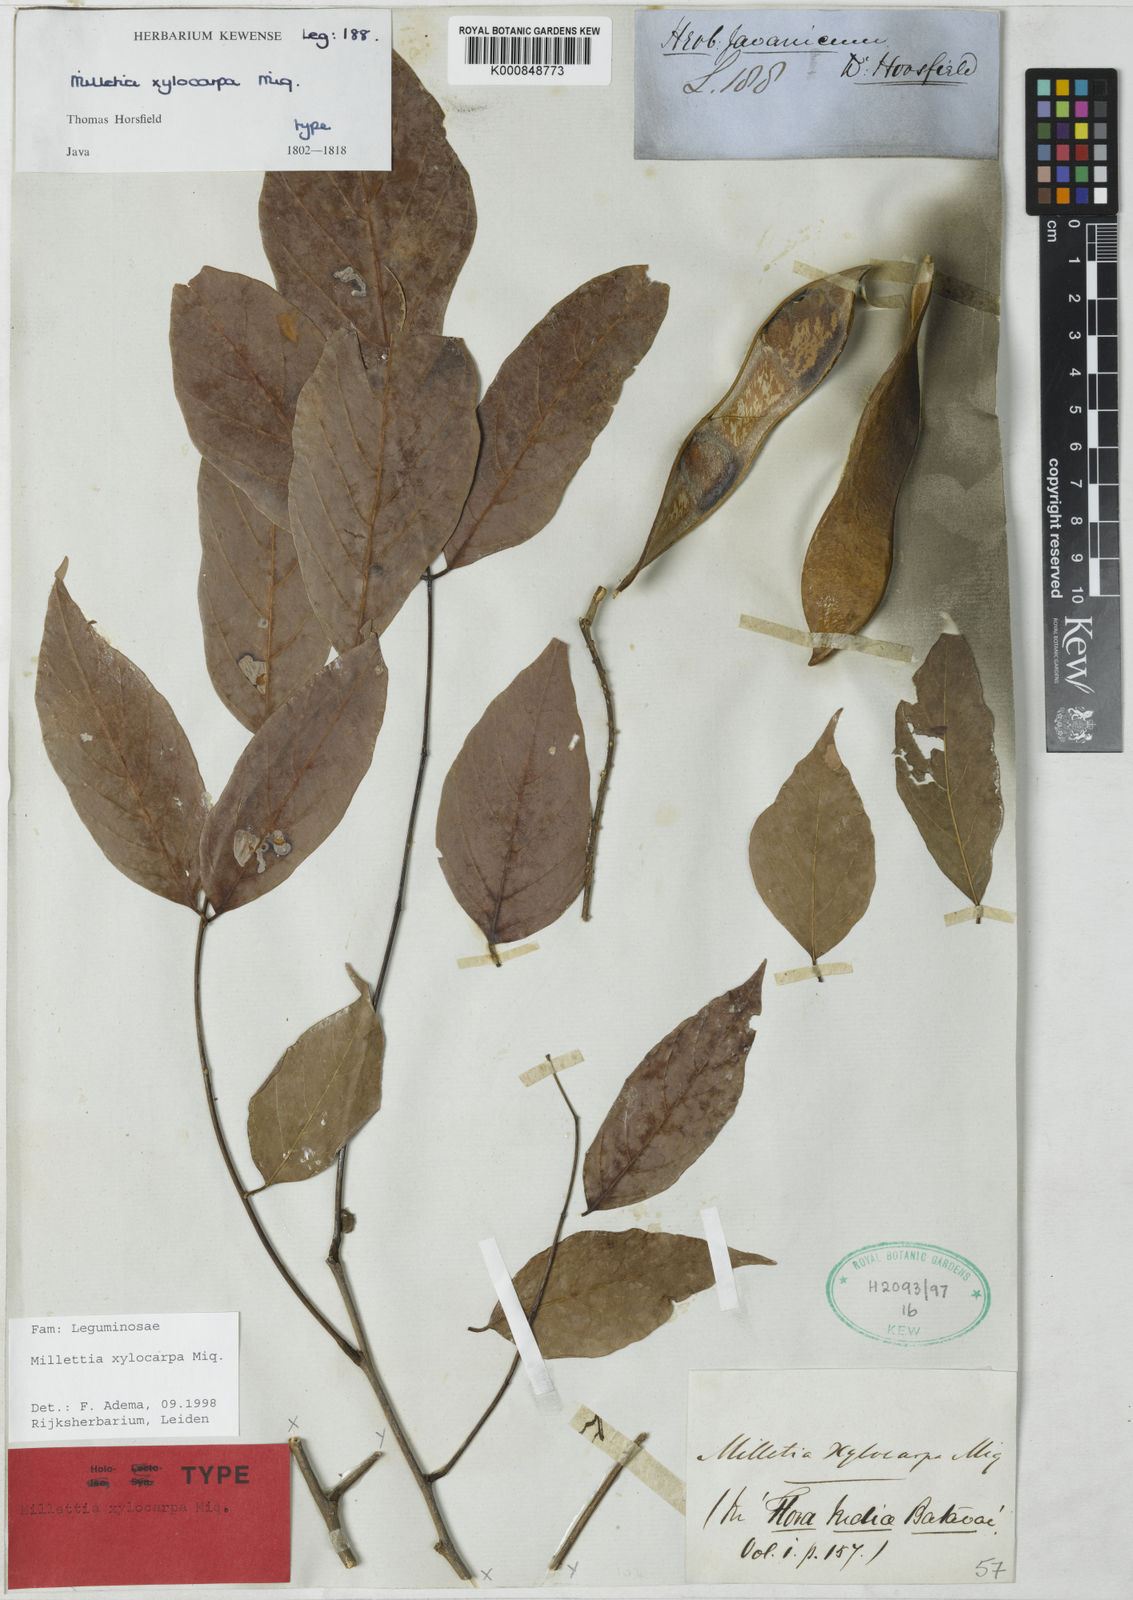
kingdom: Plantae
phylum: Tracheophyta
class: Magnoliopsida
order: Fabales
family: Fabaceae
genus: Millettia
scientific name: Millettia xylocarpa
